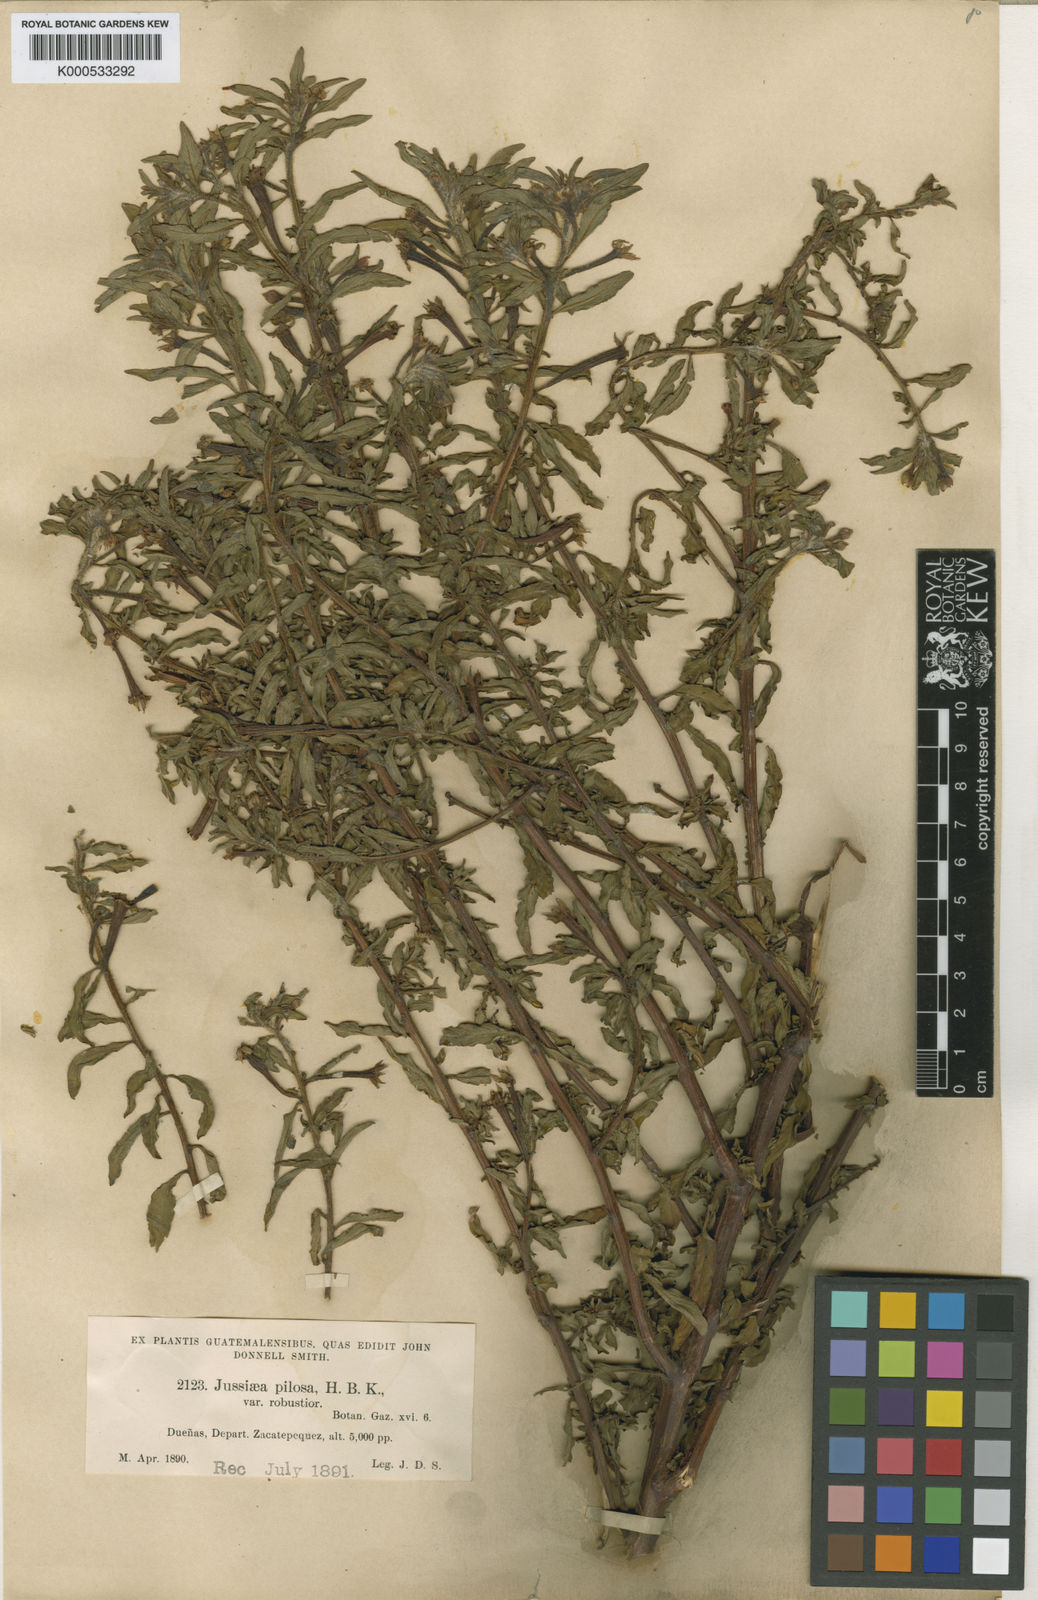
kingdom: Plantae
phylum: Tracheophyta
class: Magnoliopsida
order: Myrtales
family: Onagraceae
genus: Ludwigia
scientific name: Ludwigia leptocarpa
